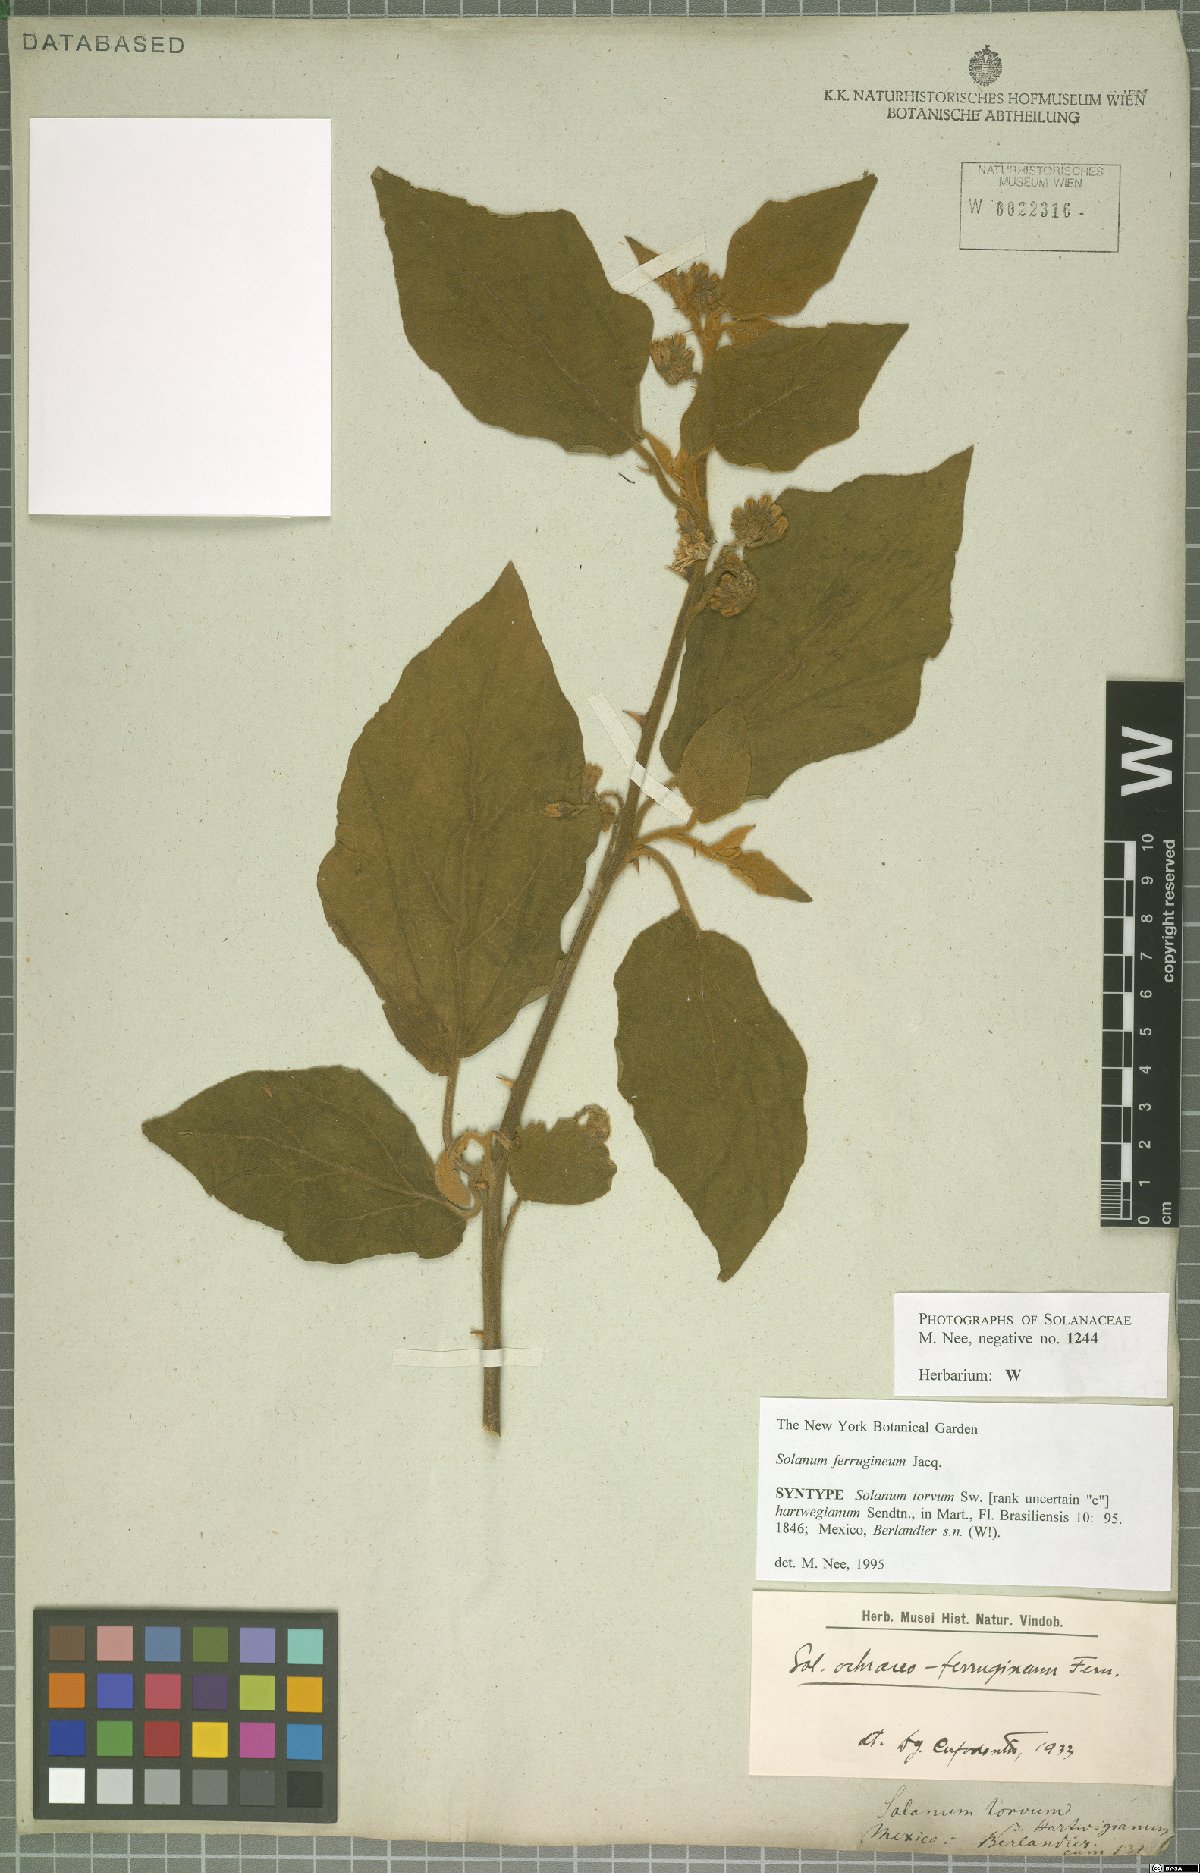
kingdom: Plantae
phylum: Tracheophyta
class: Magnoliopsida
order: Solanales
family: Solanaceae
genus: Solanum
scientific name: Solanum ferrugineum
